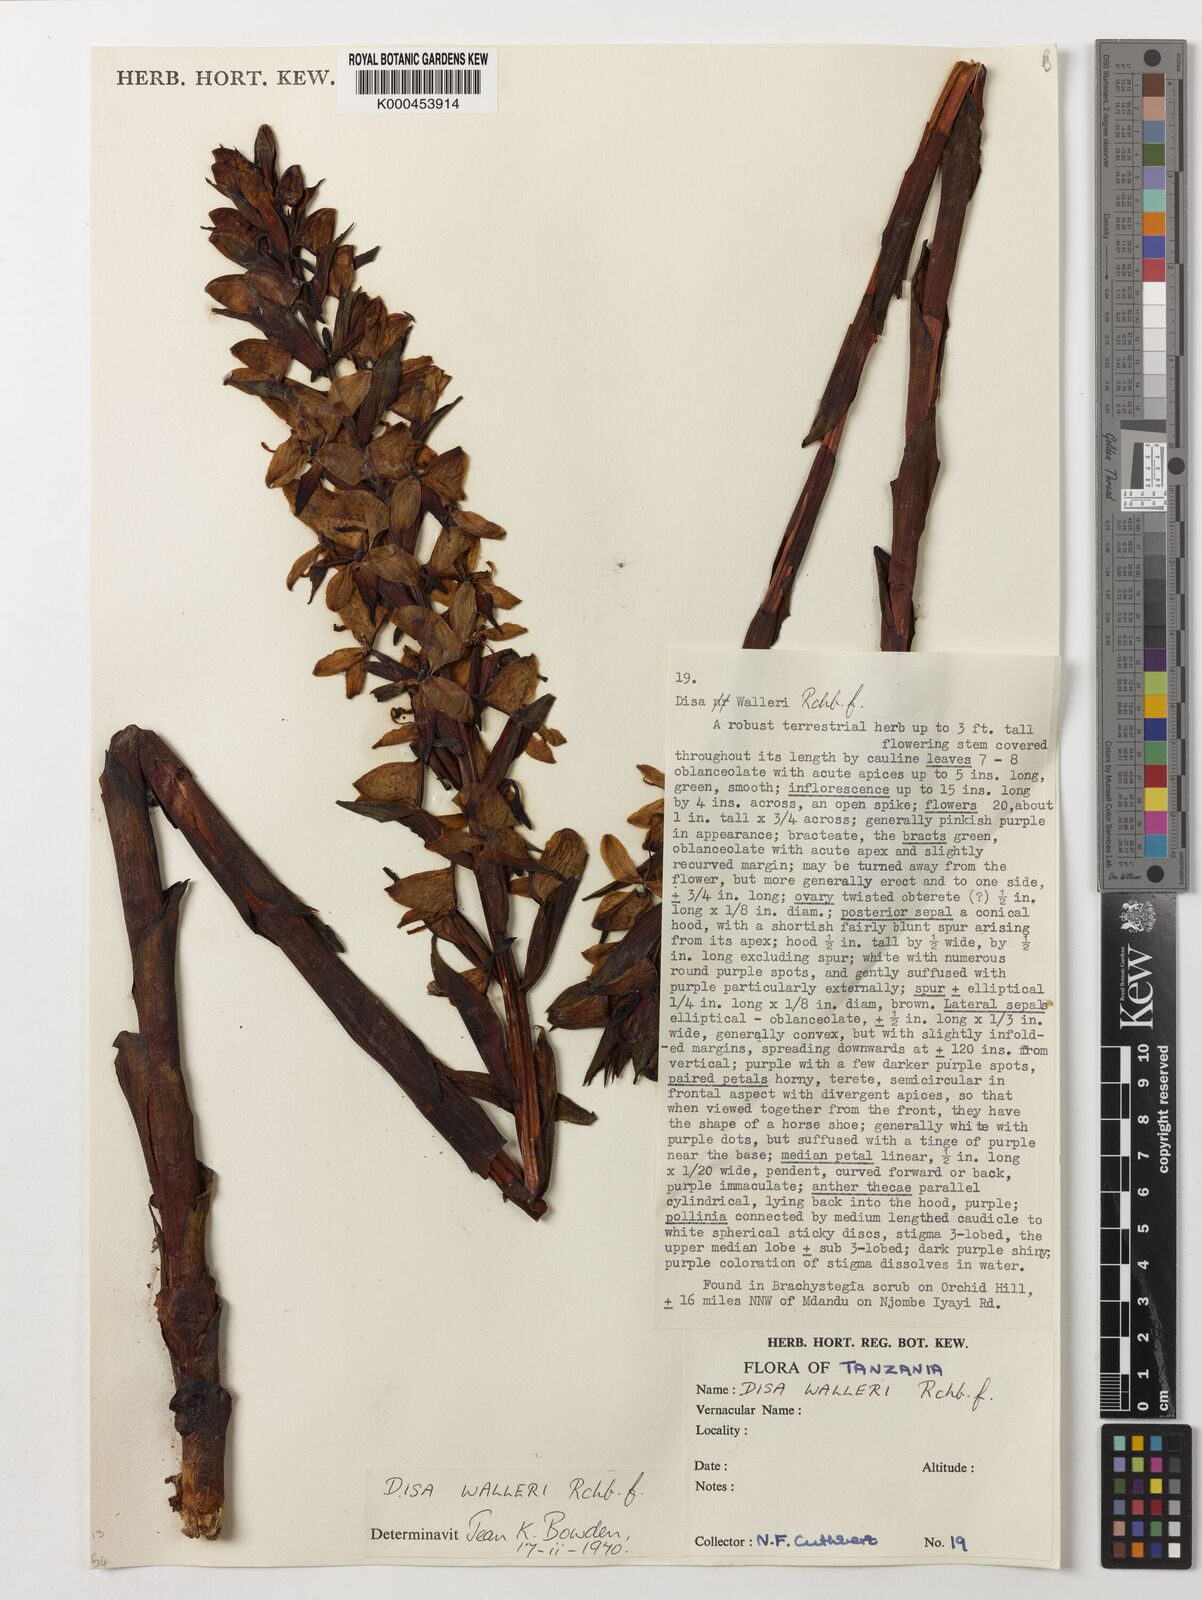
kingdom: Plantae
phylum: Tracheophyta
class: Liliopsida
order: Asparagales
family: Orchidaceae
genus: Disa
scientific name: Disa walleri
